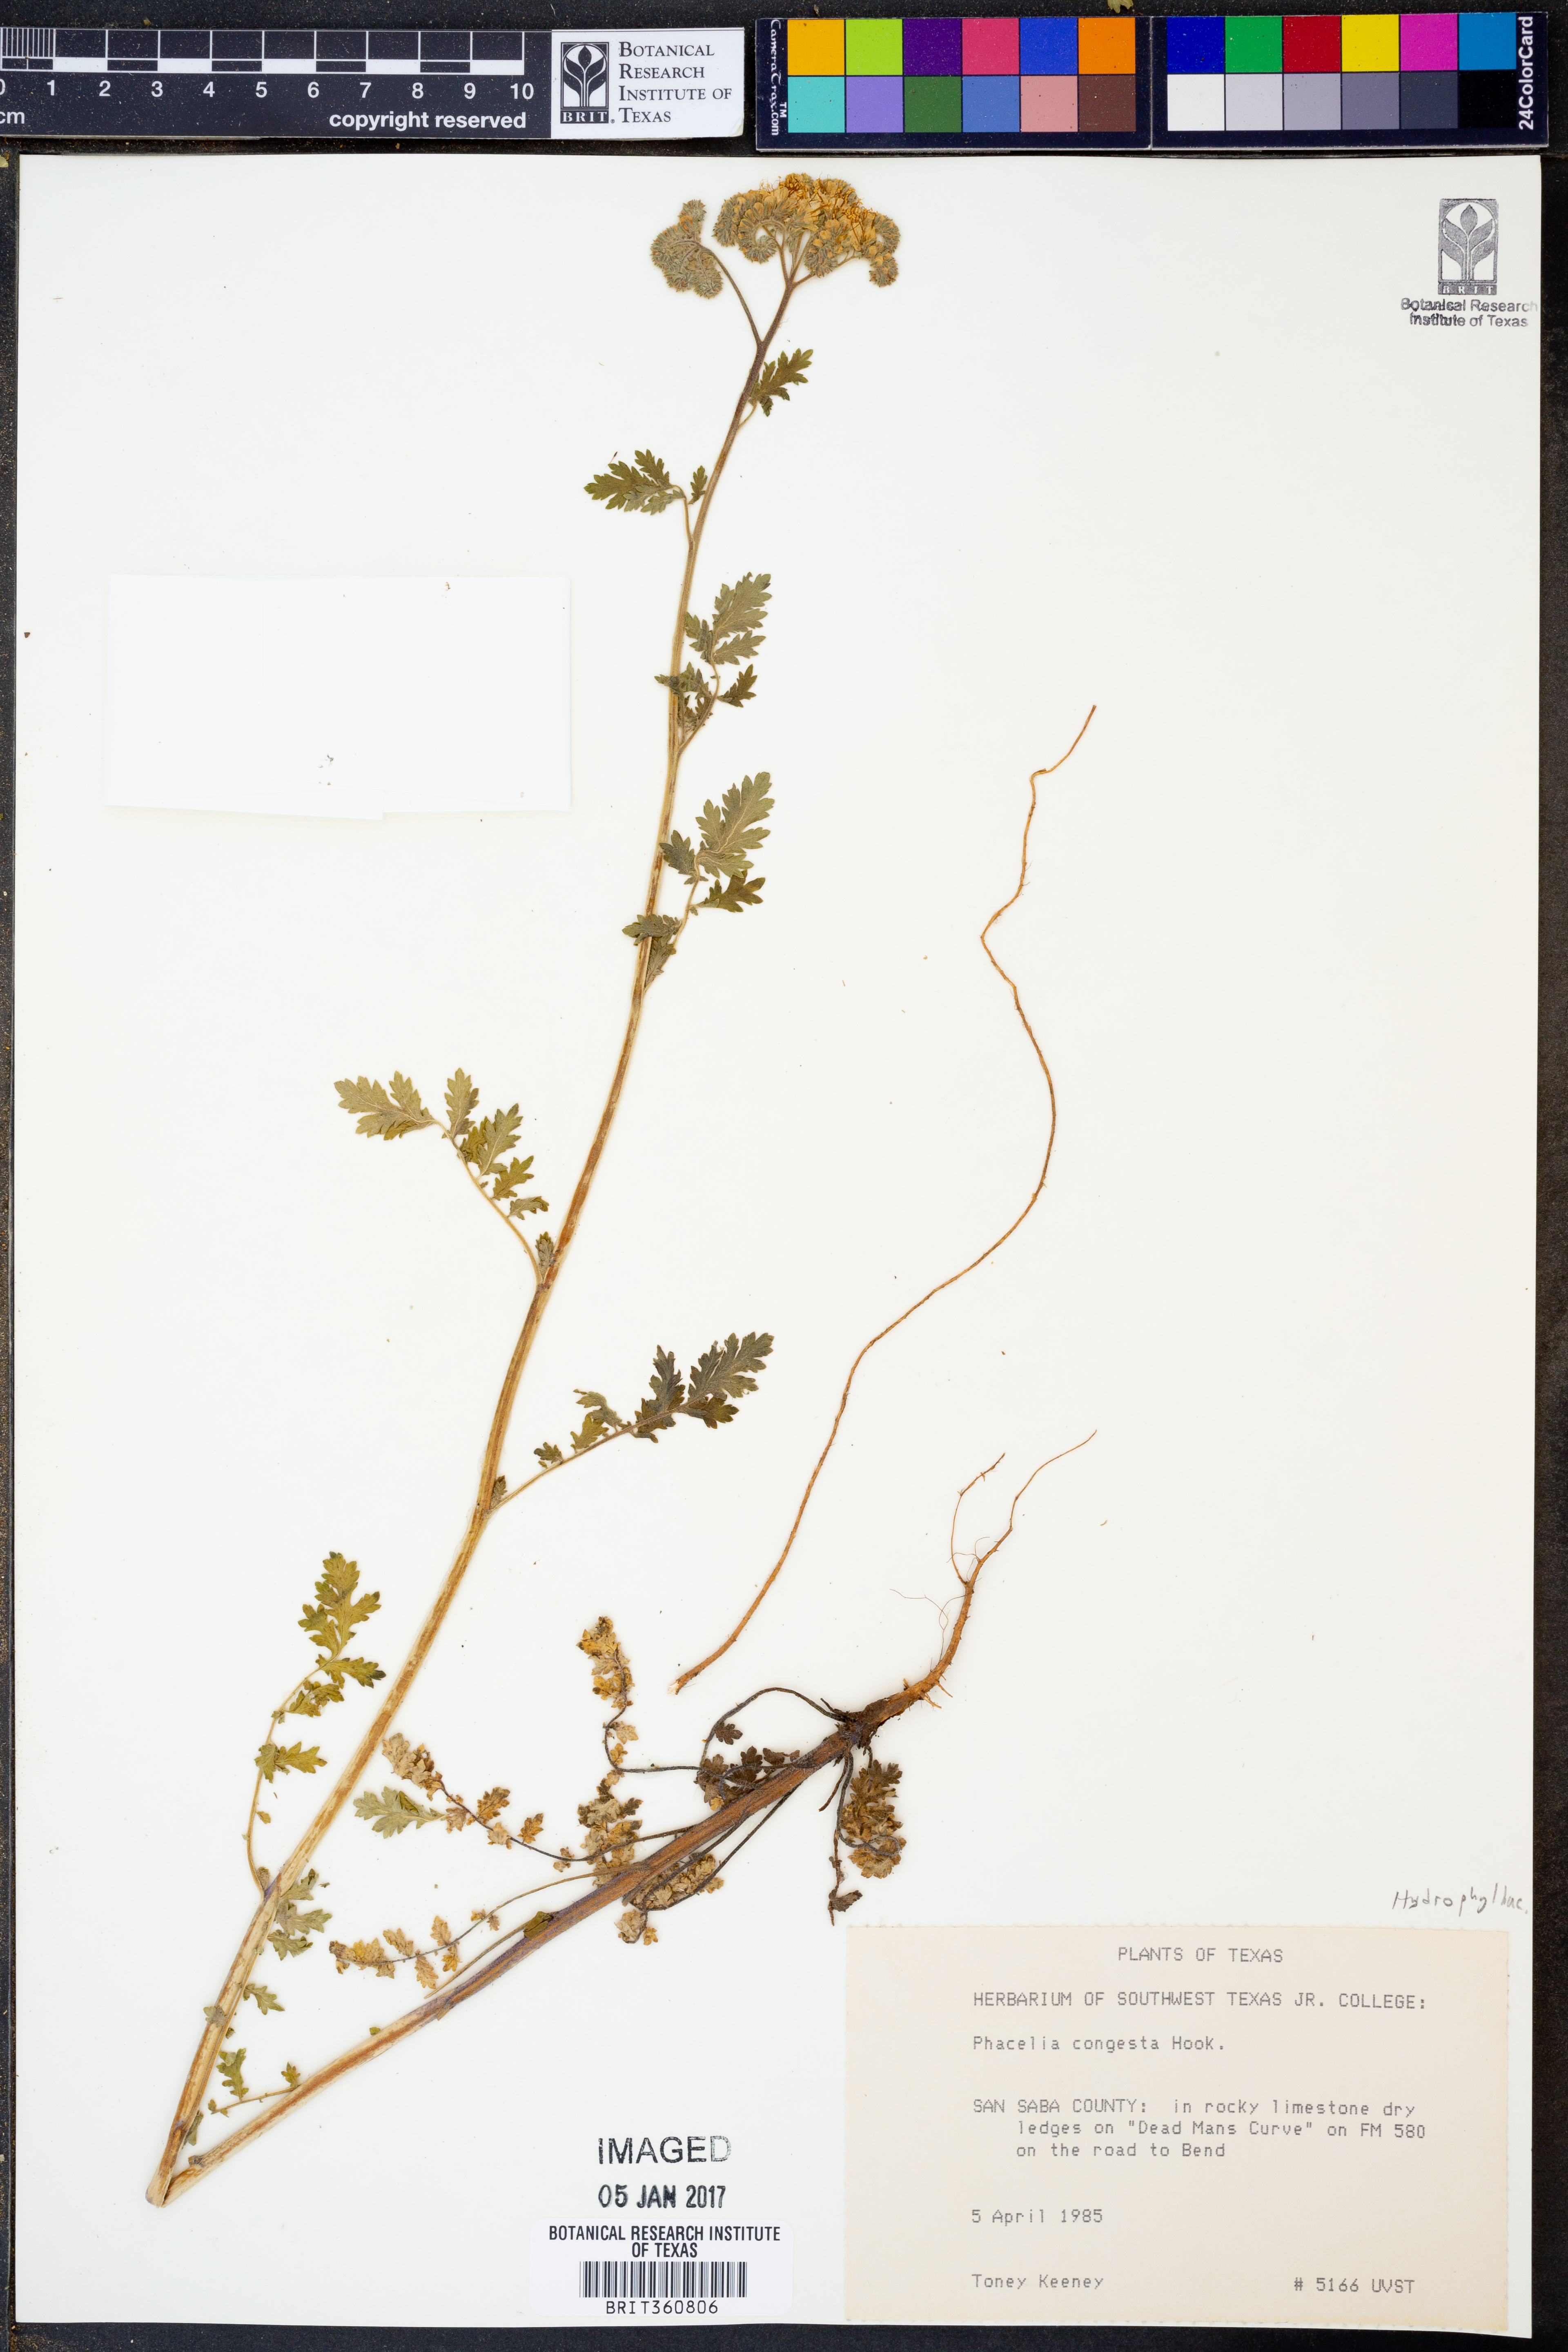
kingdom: Plantae
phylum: Tracheophyta
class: Magnoliopsida
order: Boraginales
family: Hydrophyllaceae
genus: Phacelia
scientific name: Phacelia congesta
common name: Blue curls
